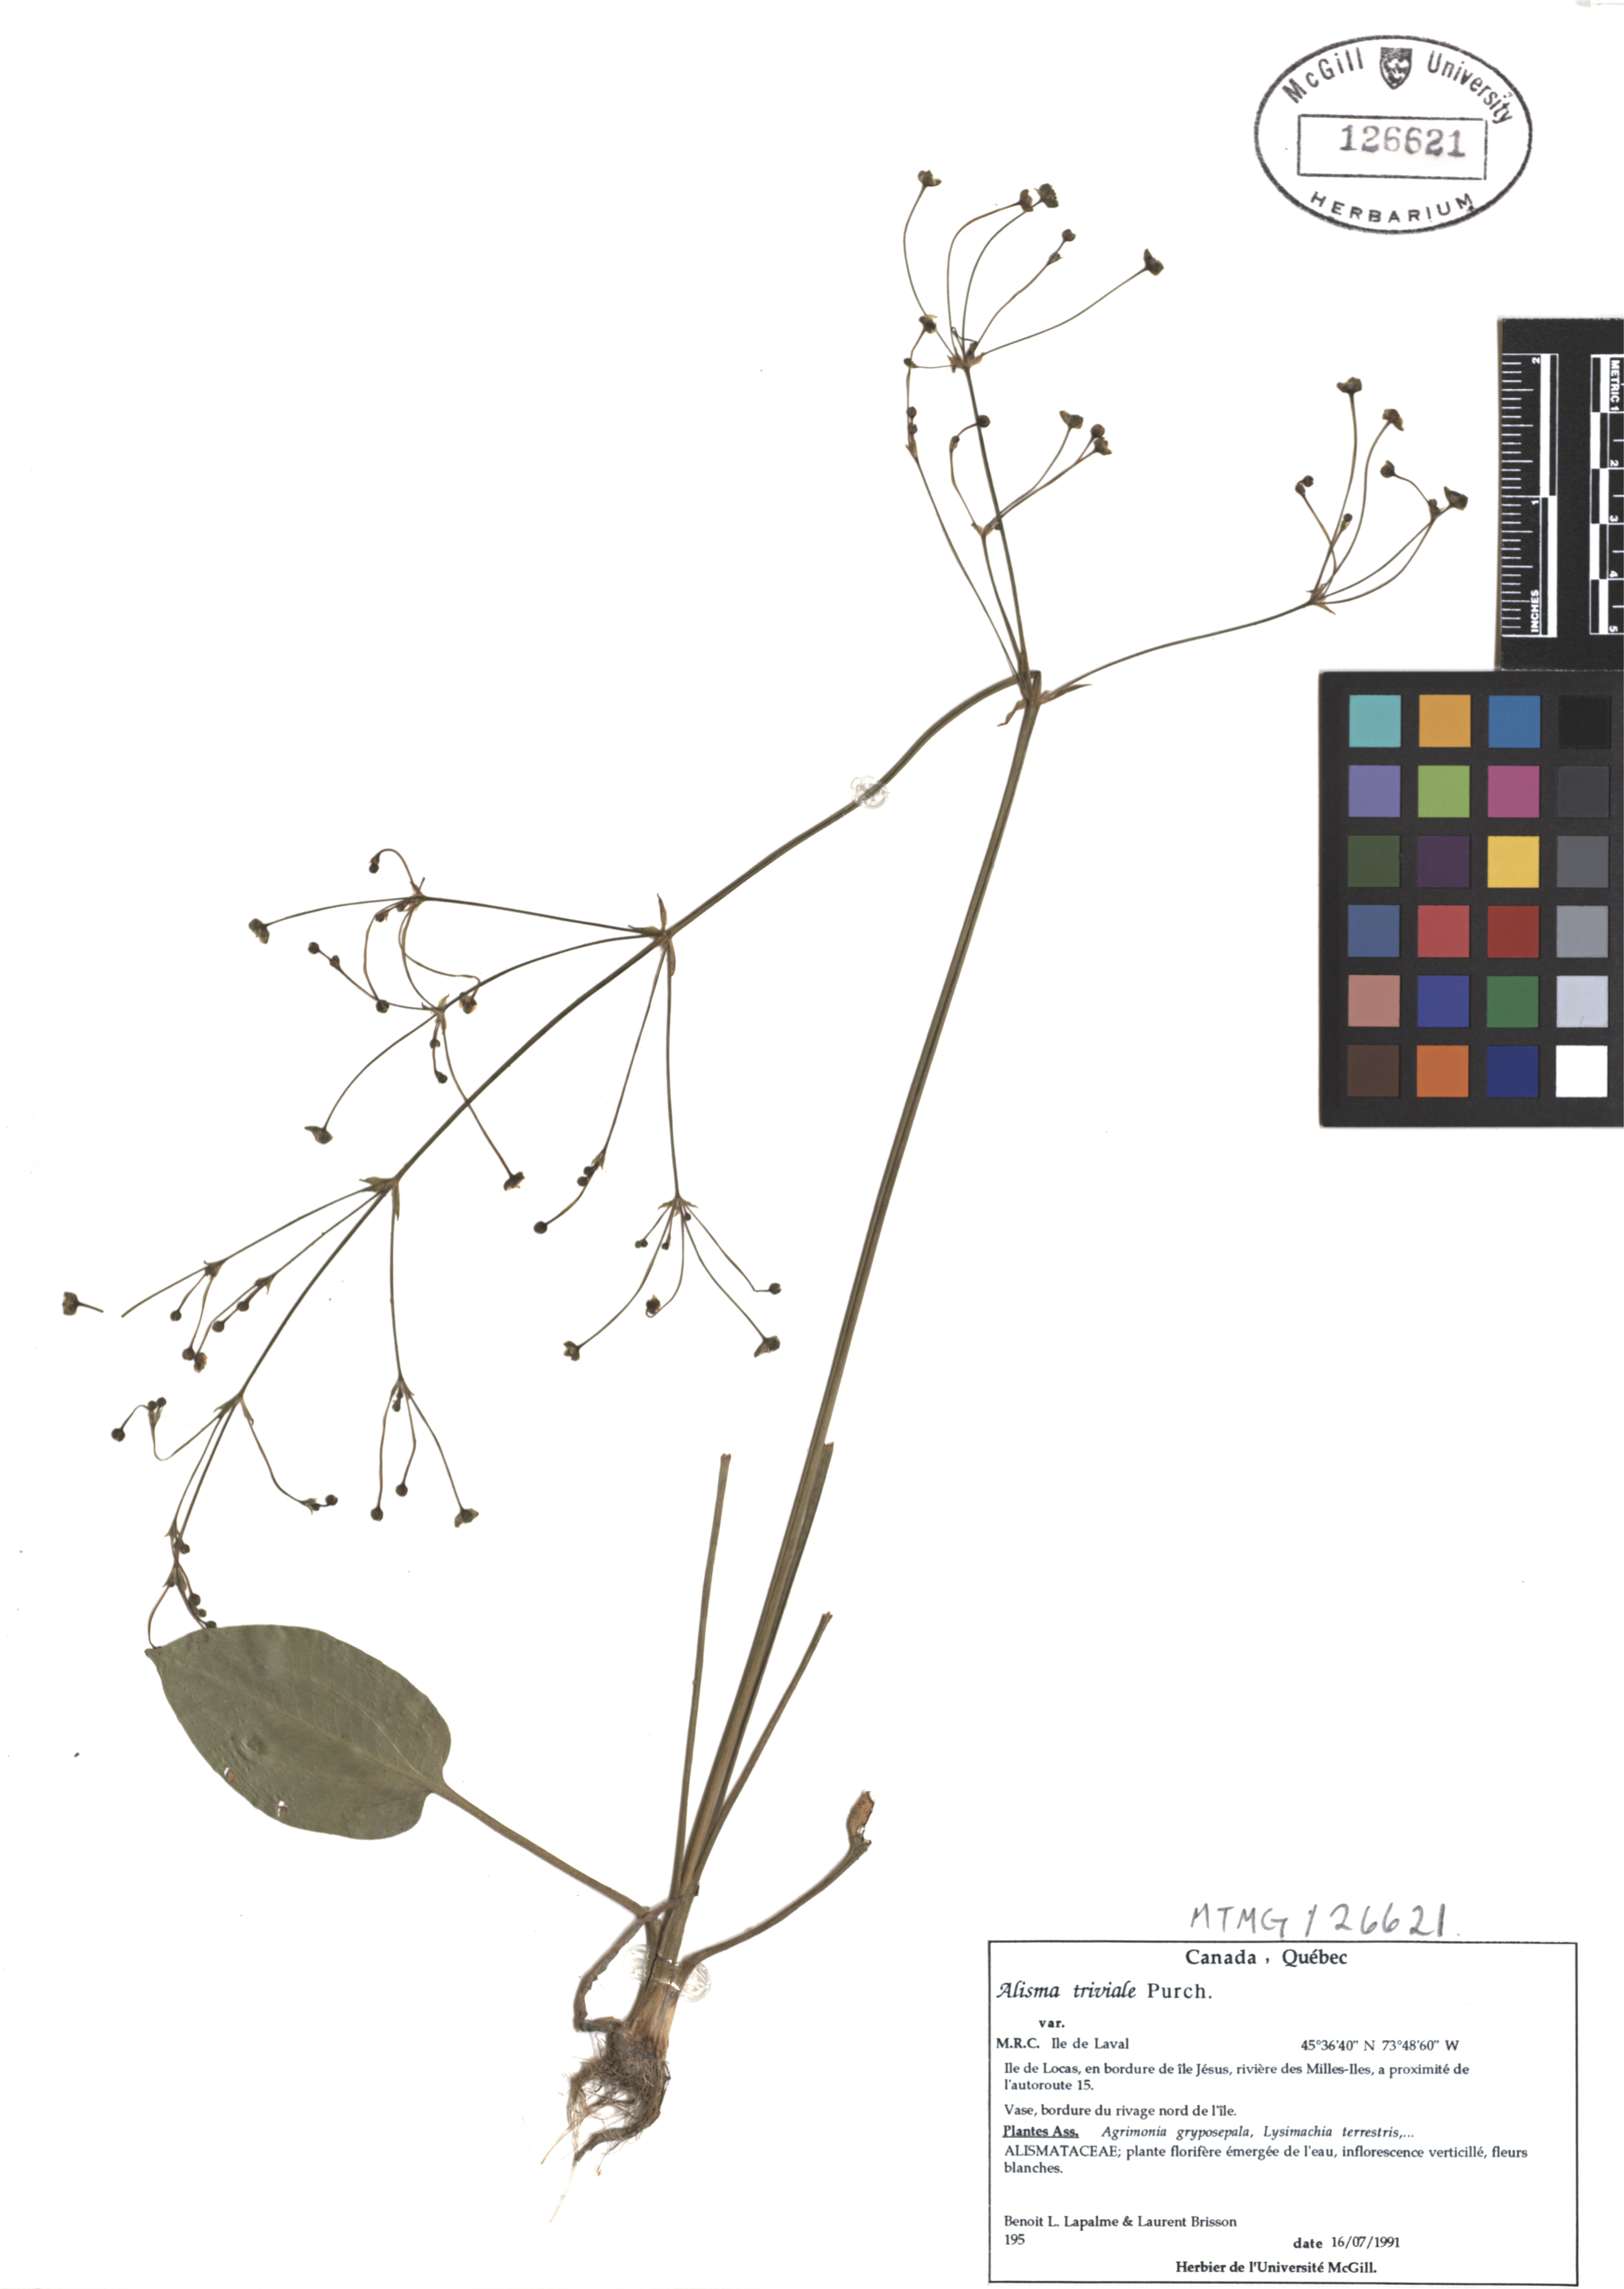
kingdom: Plantae
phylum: Tracheophyta
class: Liliopsida
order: Alismatales
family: Alismataceae
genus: Alisma
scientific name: Alisma triviale
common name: Northern water-plantain
